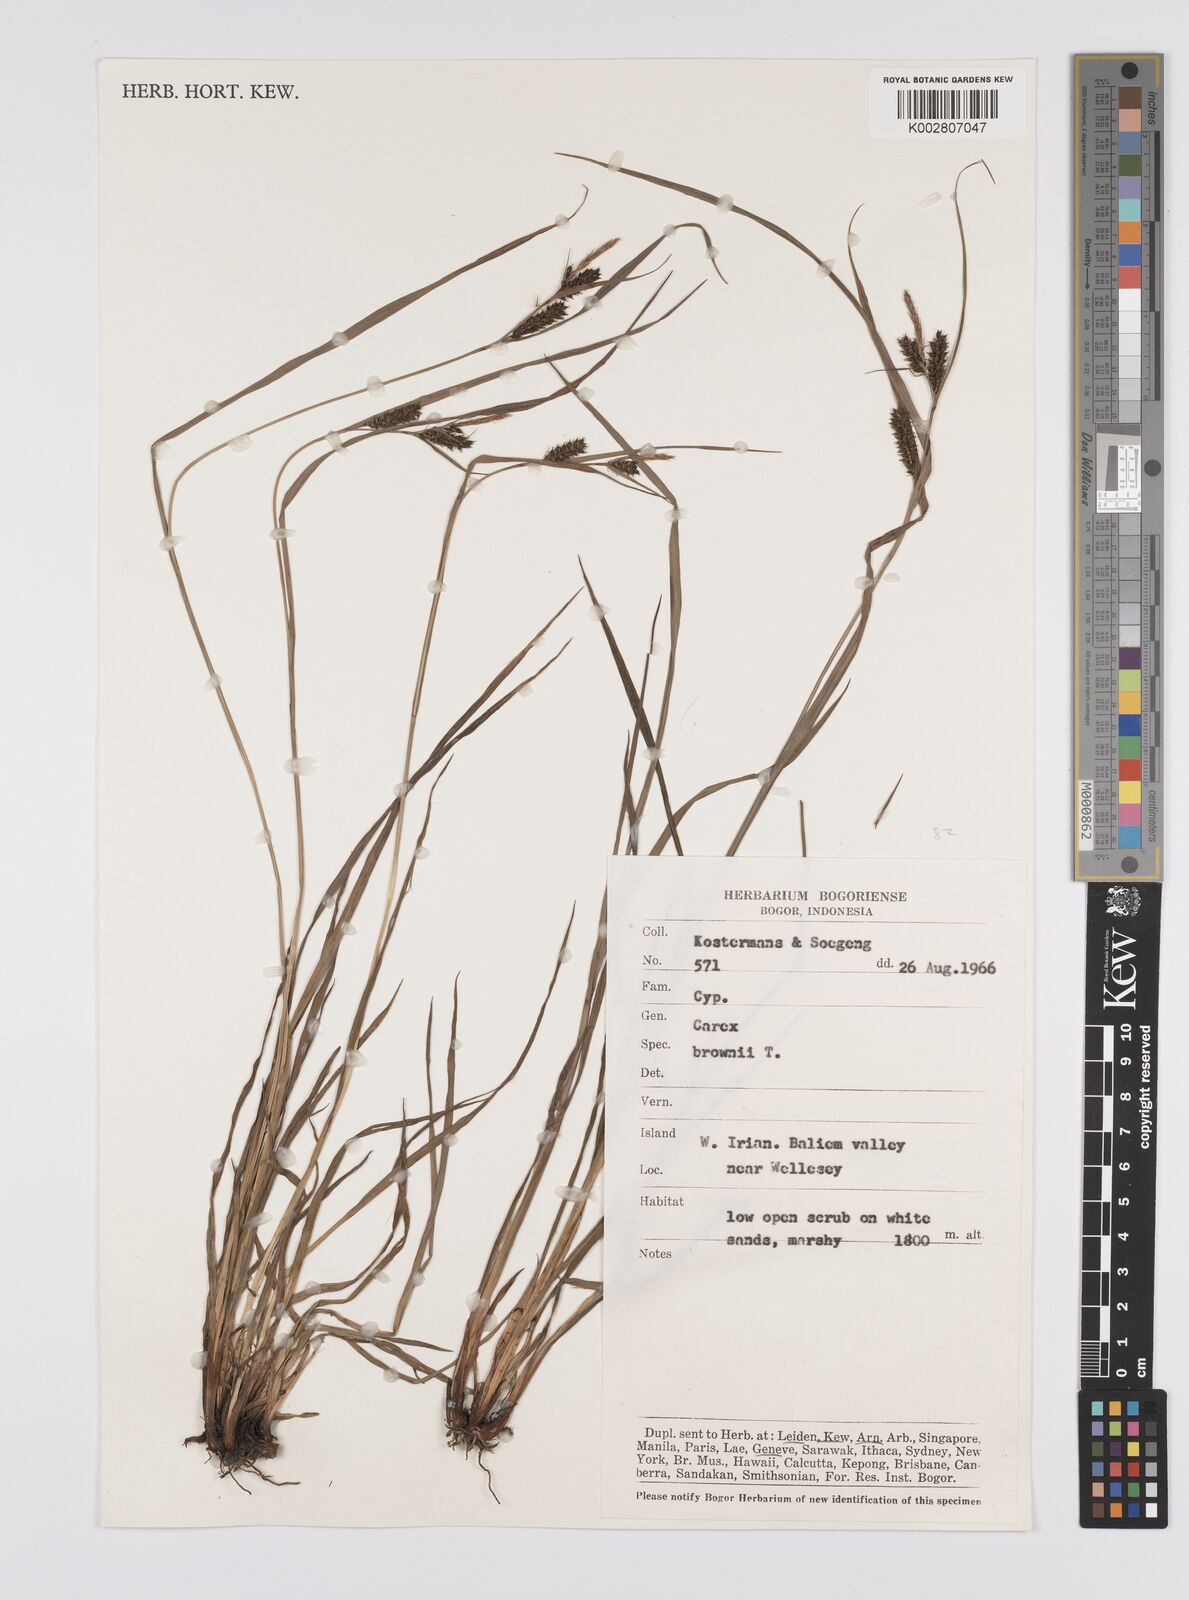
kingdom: Plantae
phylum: Tracheophyta
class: Liliopsida
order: Poales
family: Cyperaceae
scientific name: Cyperaceae
